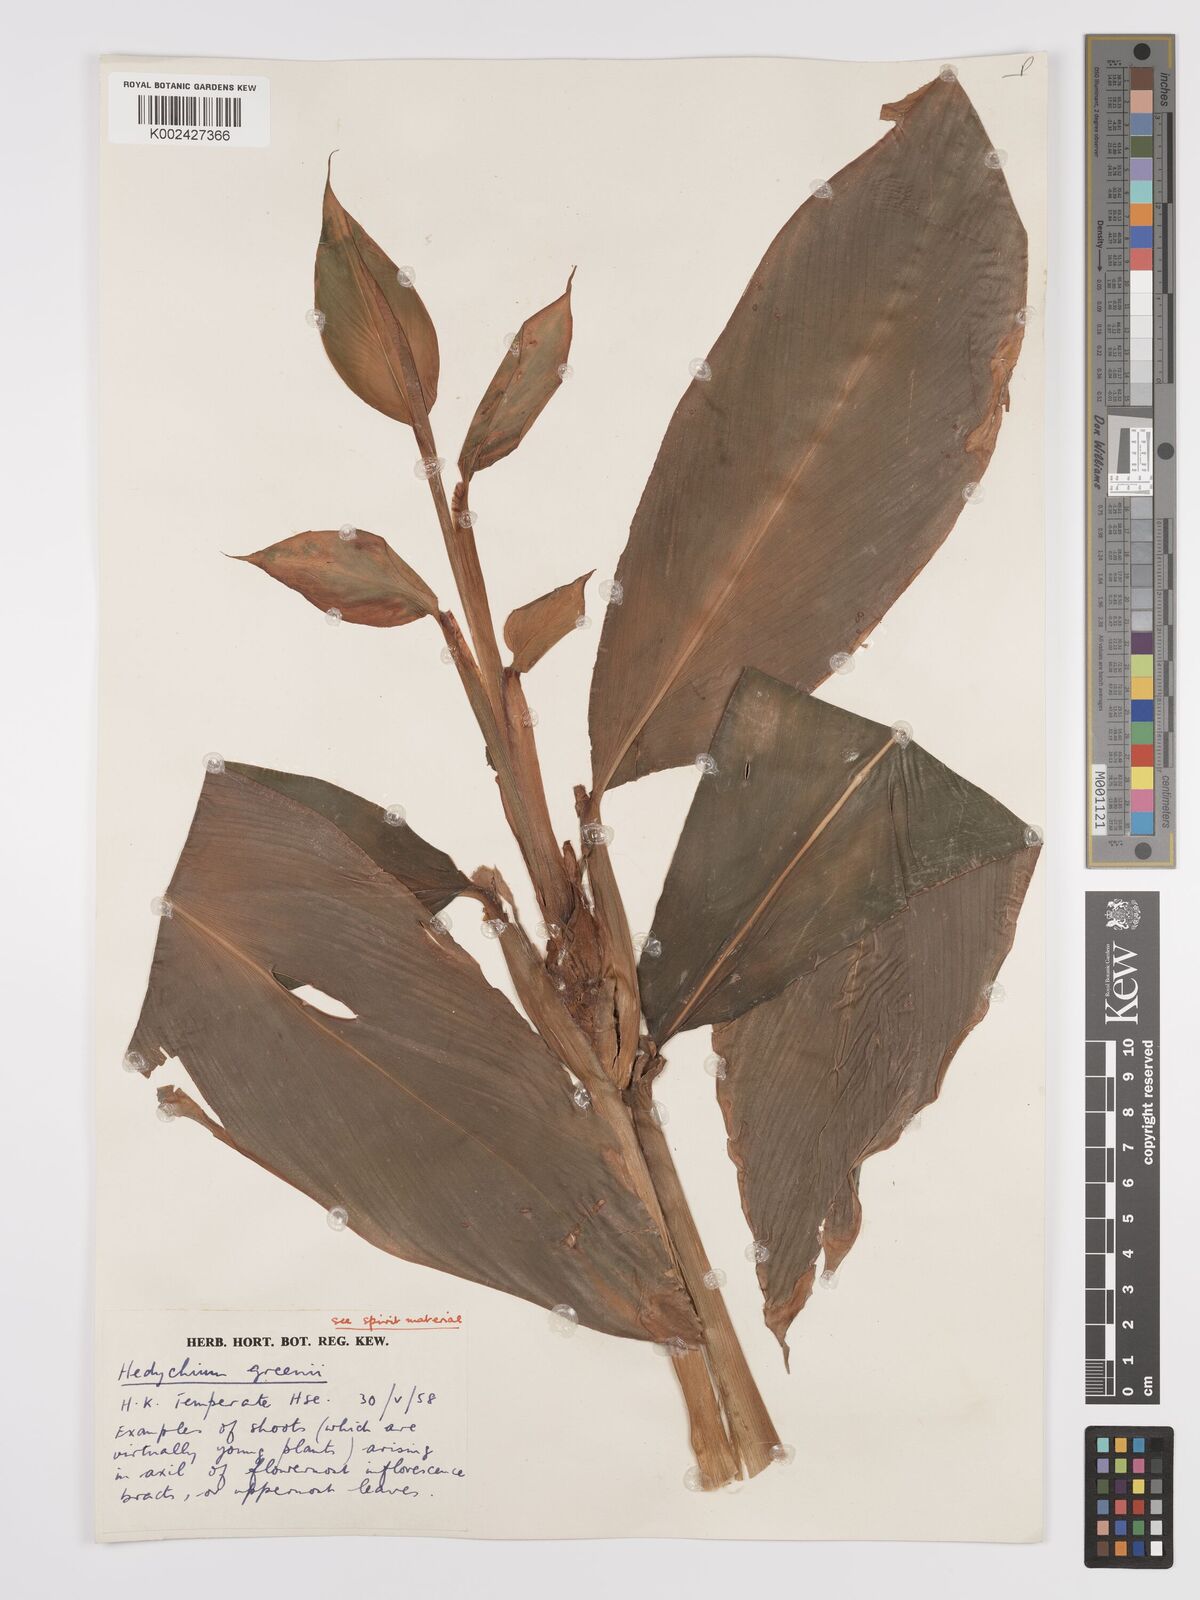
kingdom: Plantae
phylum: Tracheophyta
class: Liliopsida
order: Zingiberales
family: Zingiberaceae
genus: Hedychium
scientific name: Hedychium greenii
